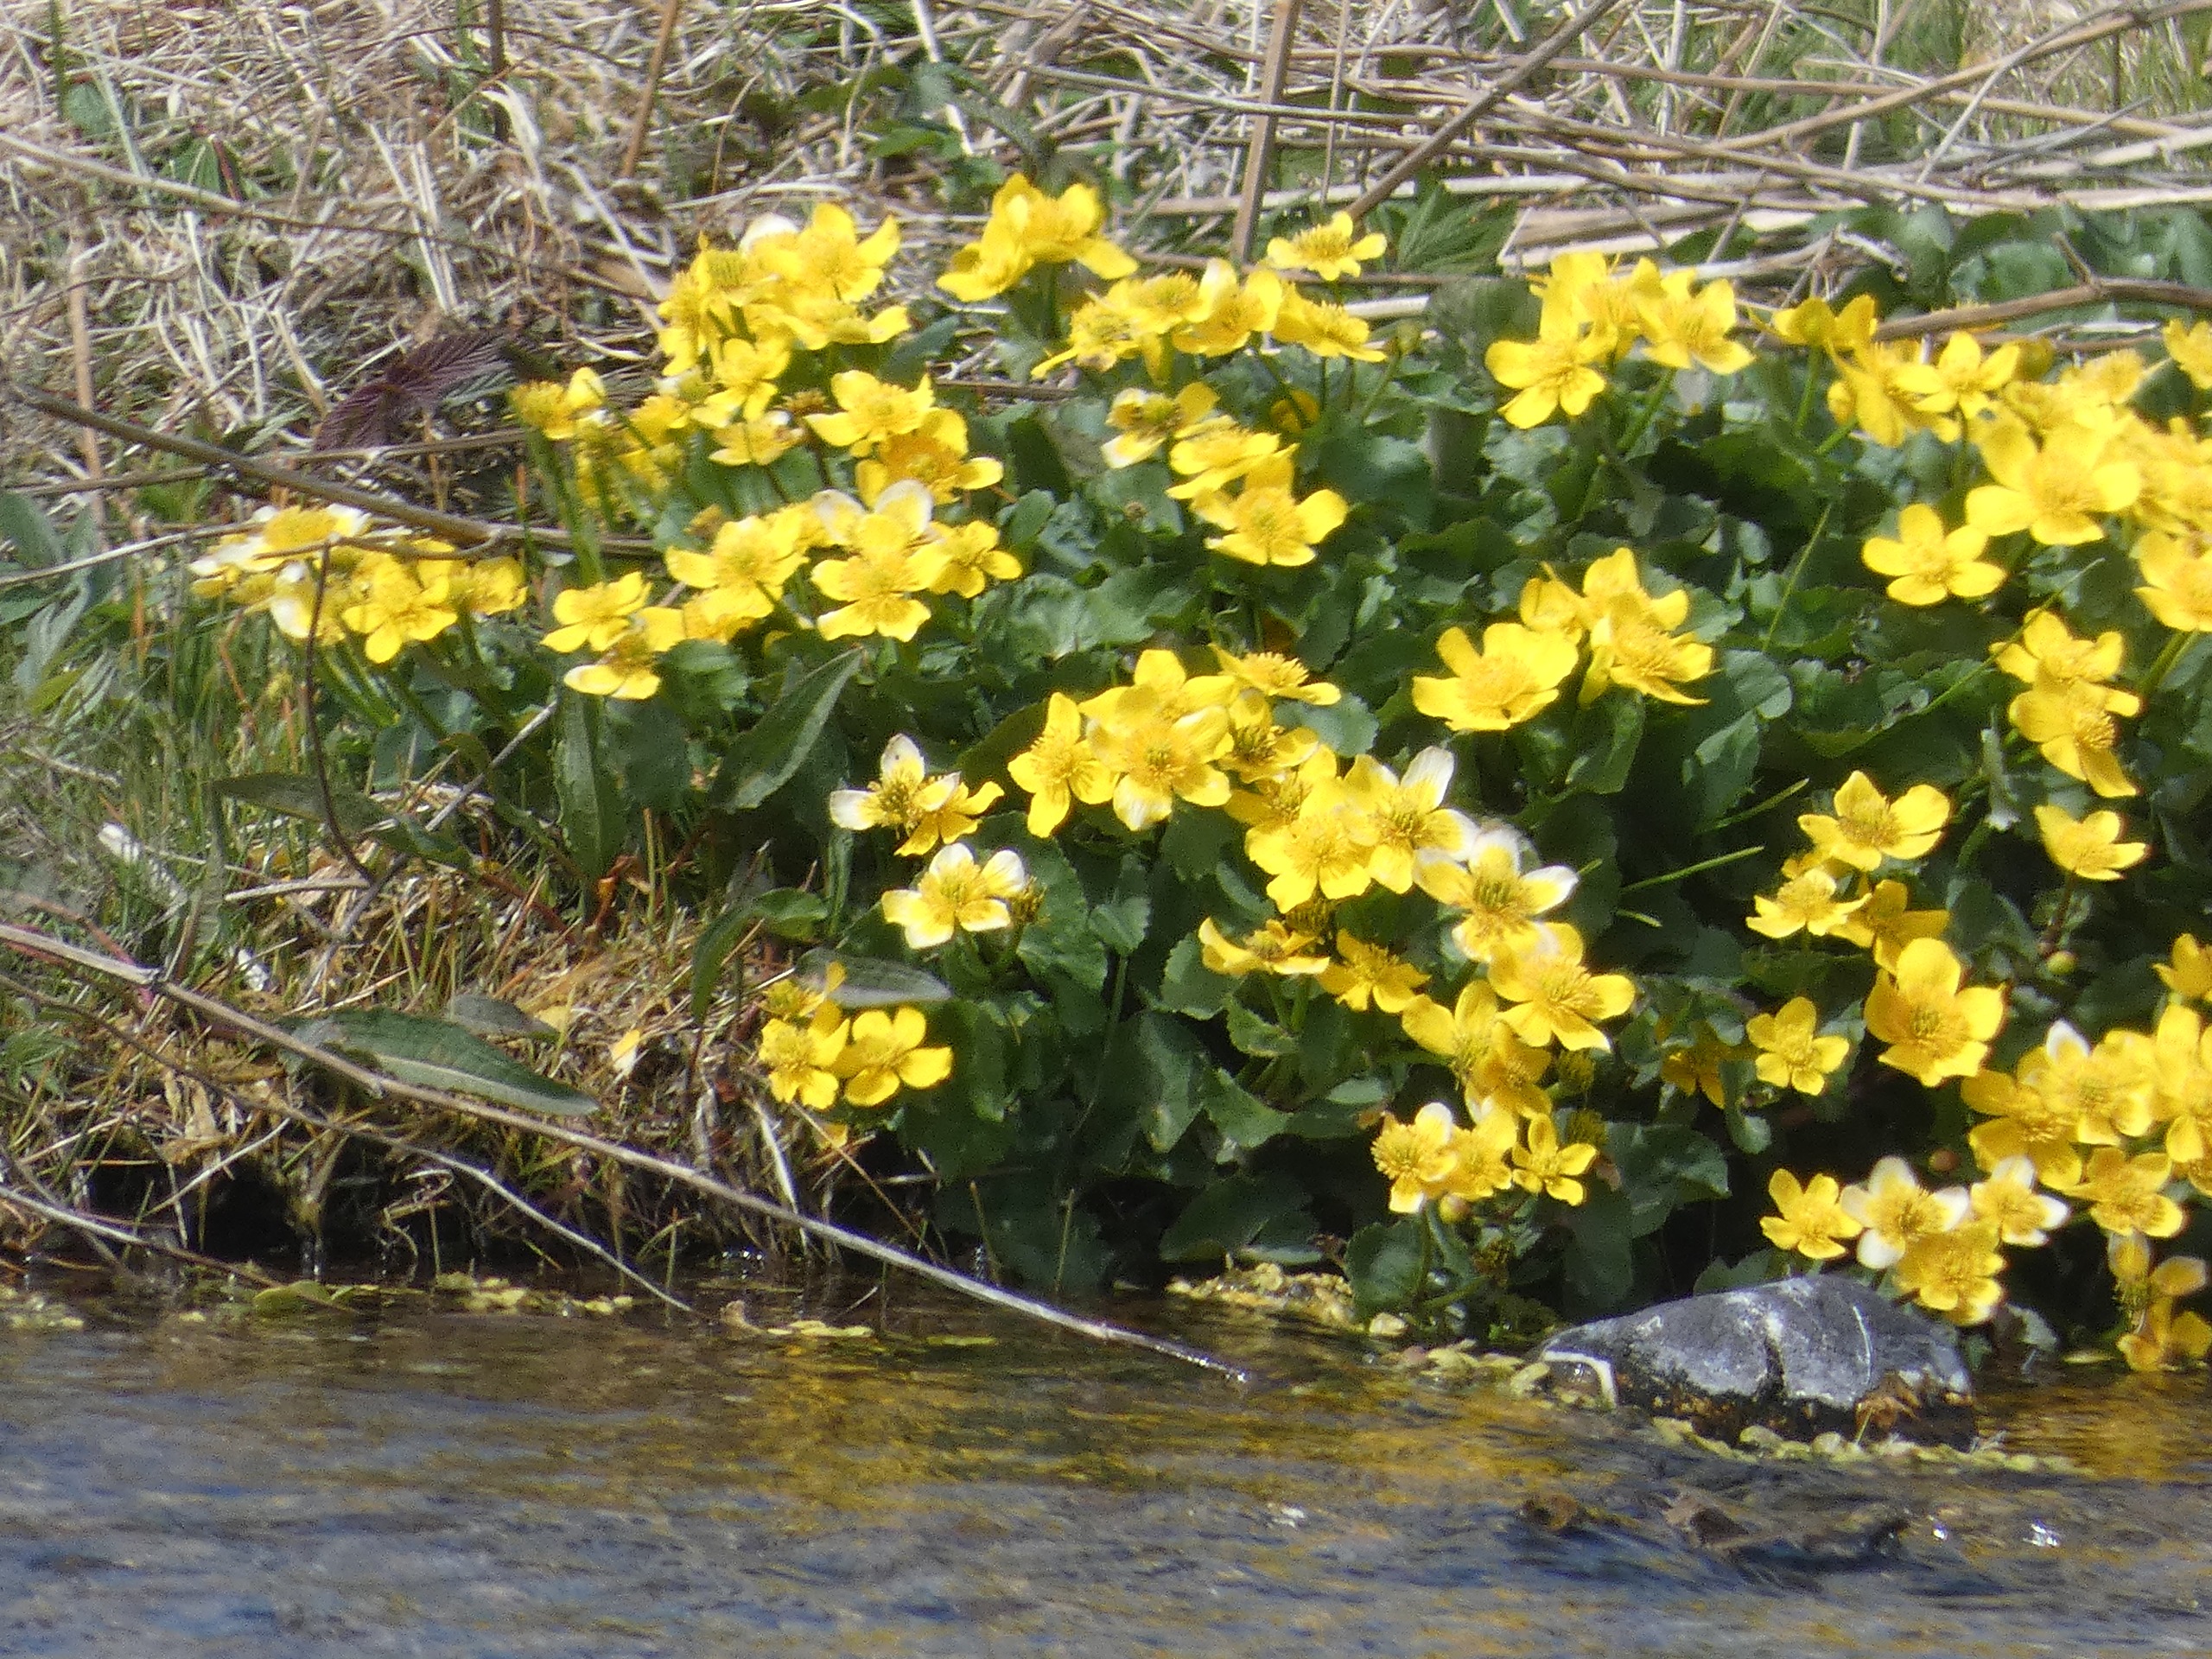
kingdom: Plantae
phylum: Tracheophyta
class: Magnoliopsida
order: Ranunculales
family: Ranunculaceae
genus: Caltha
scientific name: Caltha palustris
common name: Eng-kabbeleje
